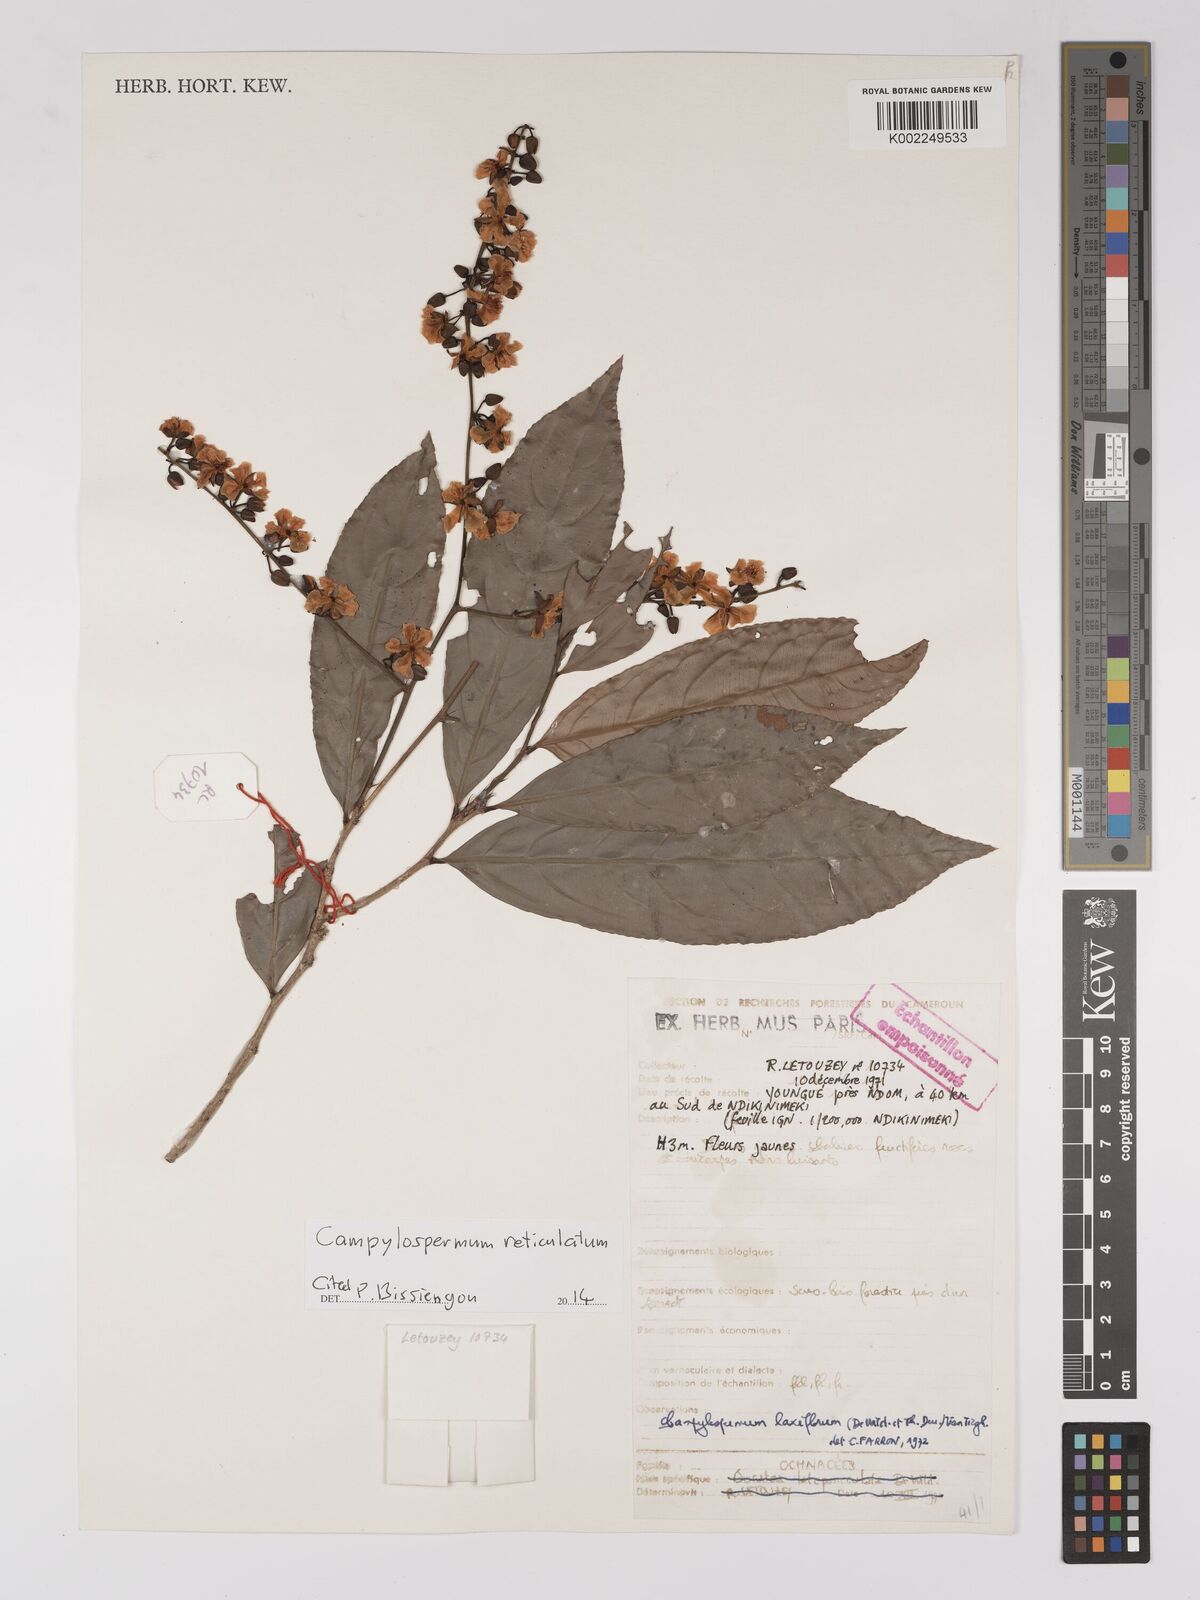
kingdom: Plantae
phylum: Tracheophyta
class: Magnoliopsida
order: Malpighiales
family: Ochnaceae
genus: Campylospermum
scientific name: Campylospermum reticulatum
